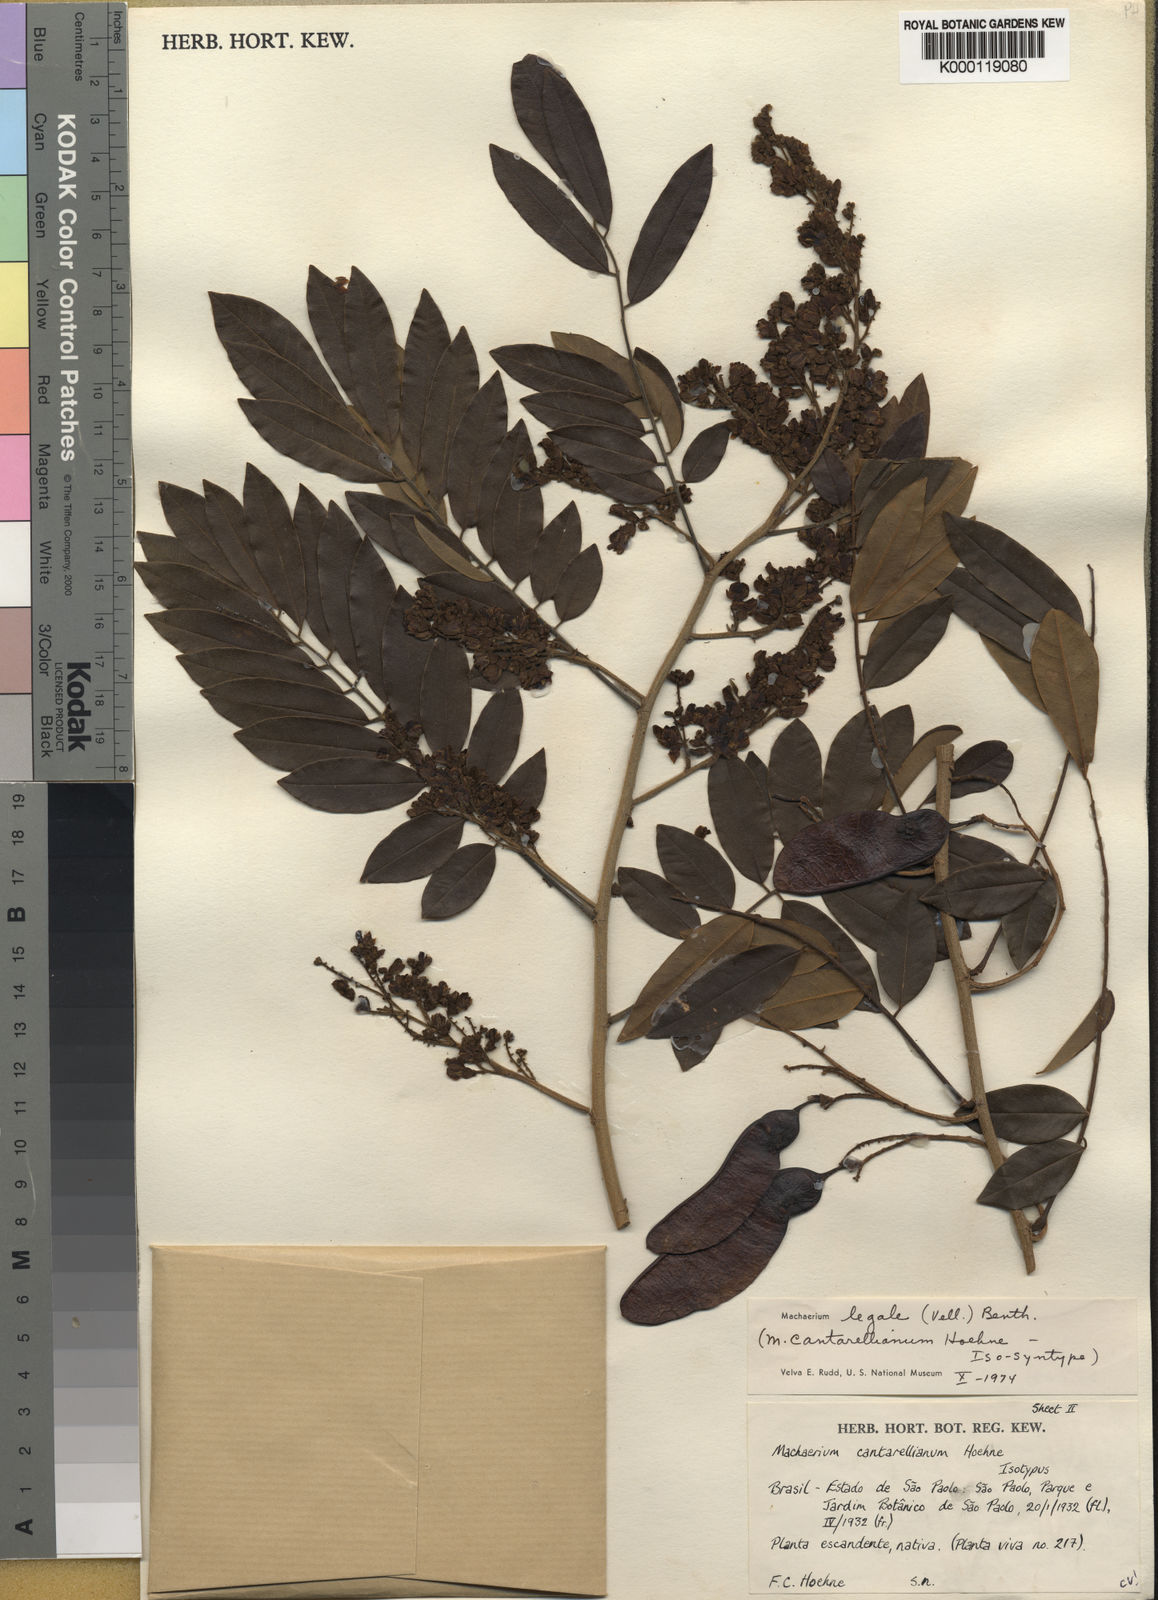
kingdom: Plantae
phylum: Tracheophyta
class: Magnoliopsida
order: Fabales
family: Fabaceae
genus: Machaerium
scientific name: Machaerium
